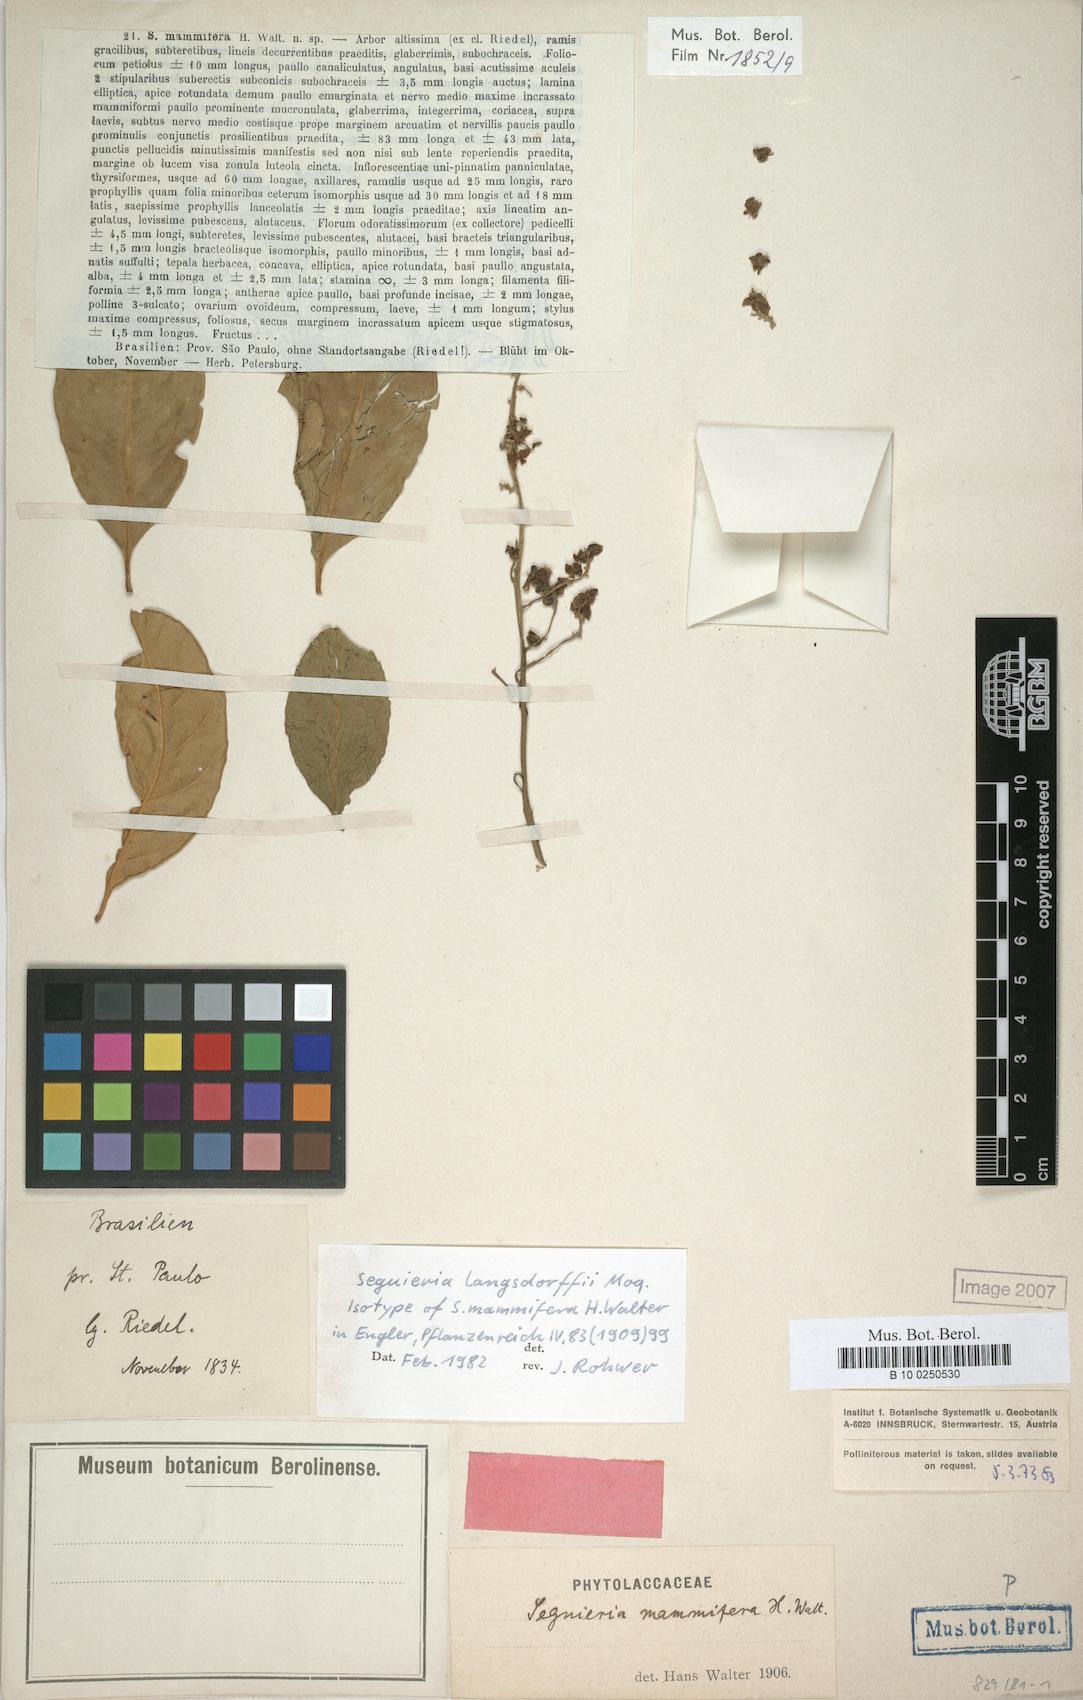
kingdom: Plantae
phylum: Tracheophyta
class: Magnoliopsida
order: Caryophyllales
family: Phytolaccaceae
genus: Seguieria
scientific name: Seguieria langsdorffii
